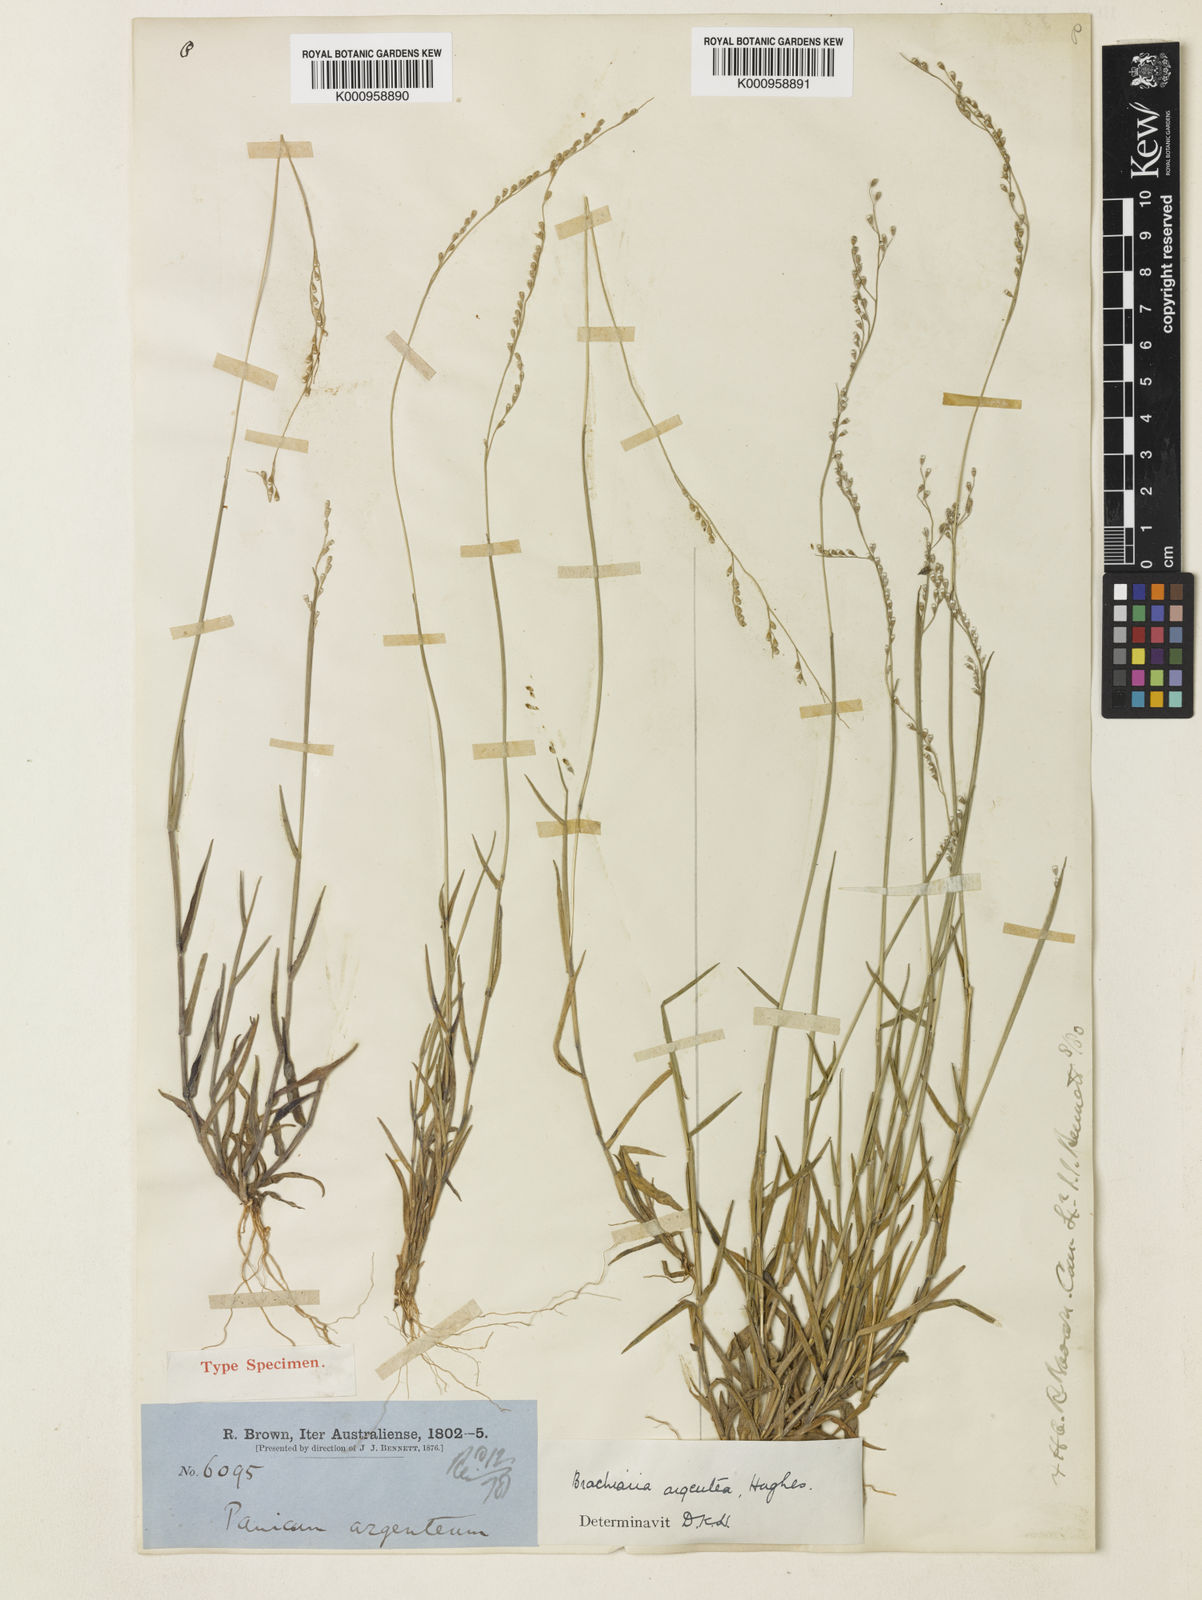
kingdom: Plantae
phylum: Tracheophyta
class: Liliopsida
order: Poales
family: Poaceae
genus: Urochloa
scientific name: Urochloa argentea
